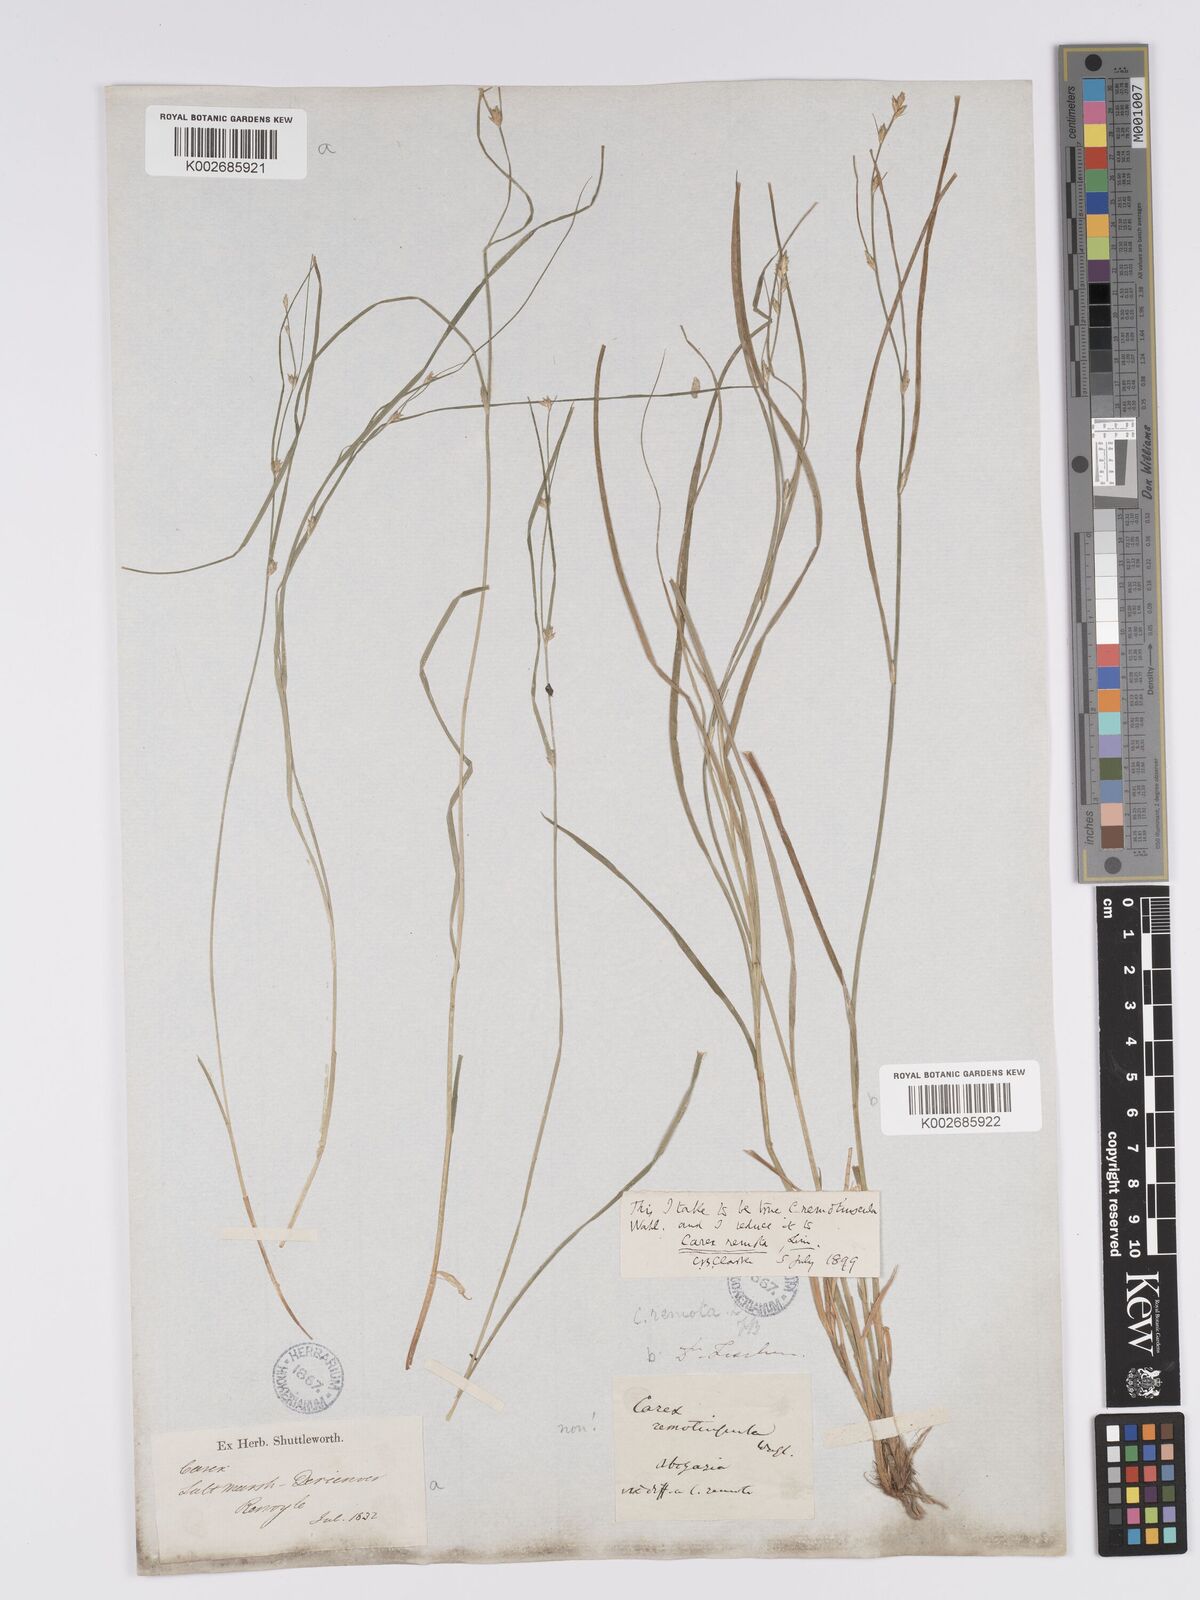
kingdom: Plantae
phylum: Tracheophyta
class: Liliopsida
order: Poales
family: Cyperaceae
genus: Carex
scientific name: Carex remota
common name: Remote sedge
